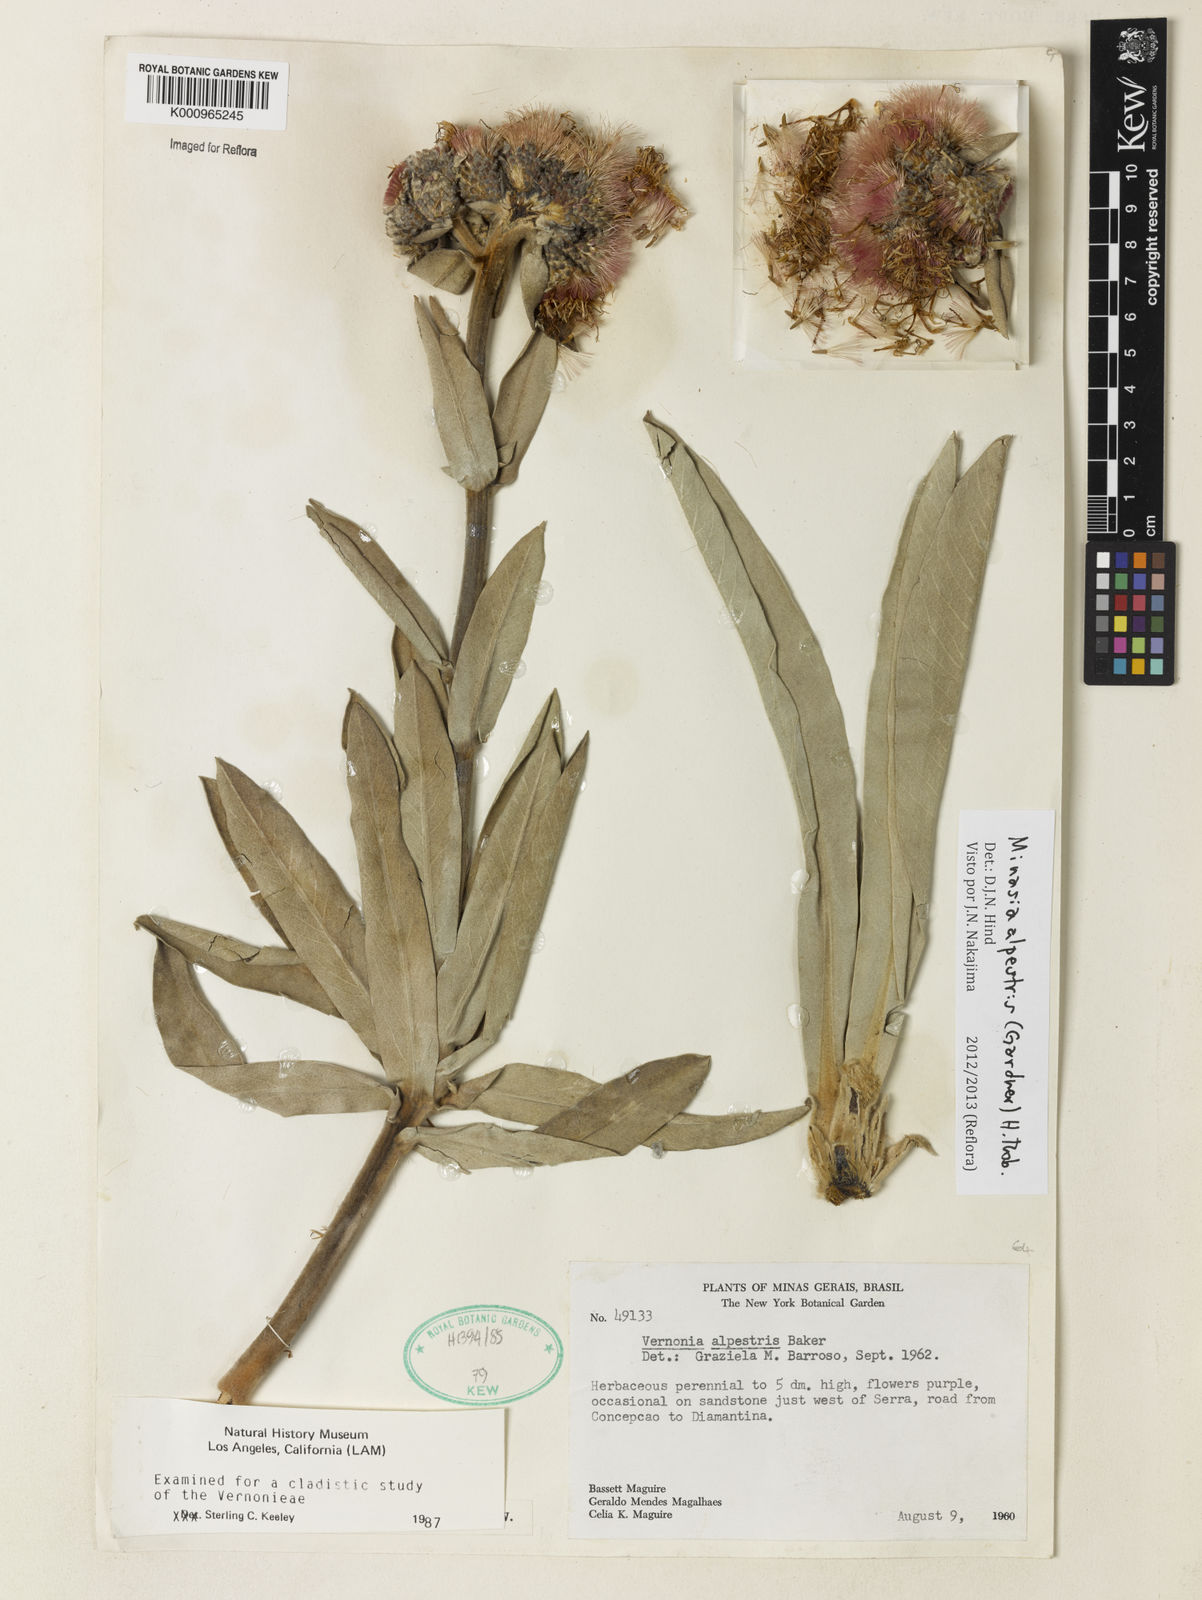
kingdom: Plantae
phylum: Tracheophyta
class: Magnoliopsida
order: Asterales
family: Asteraceae
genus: Minasia
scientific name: Minasia alpestris
